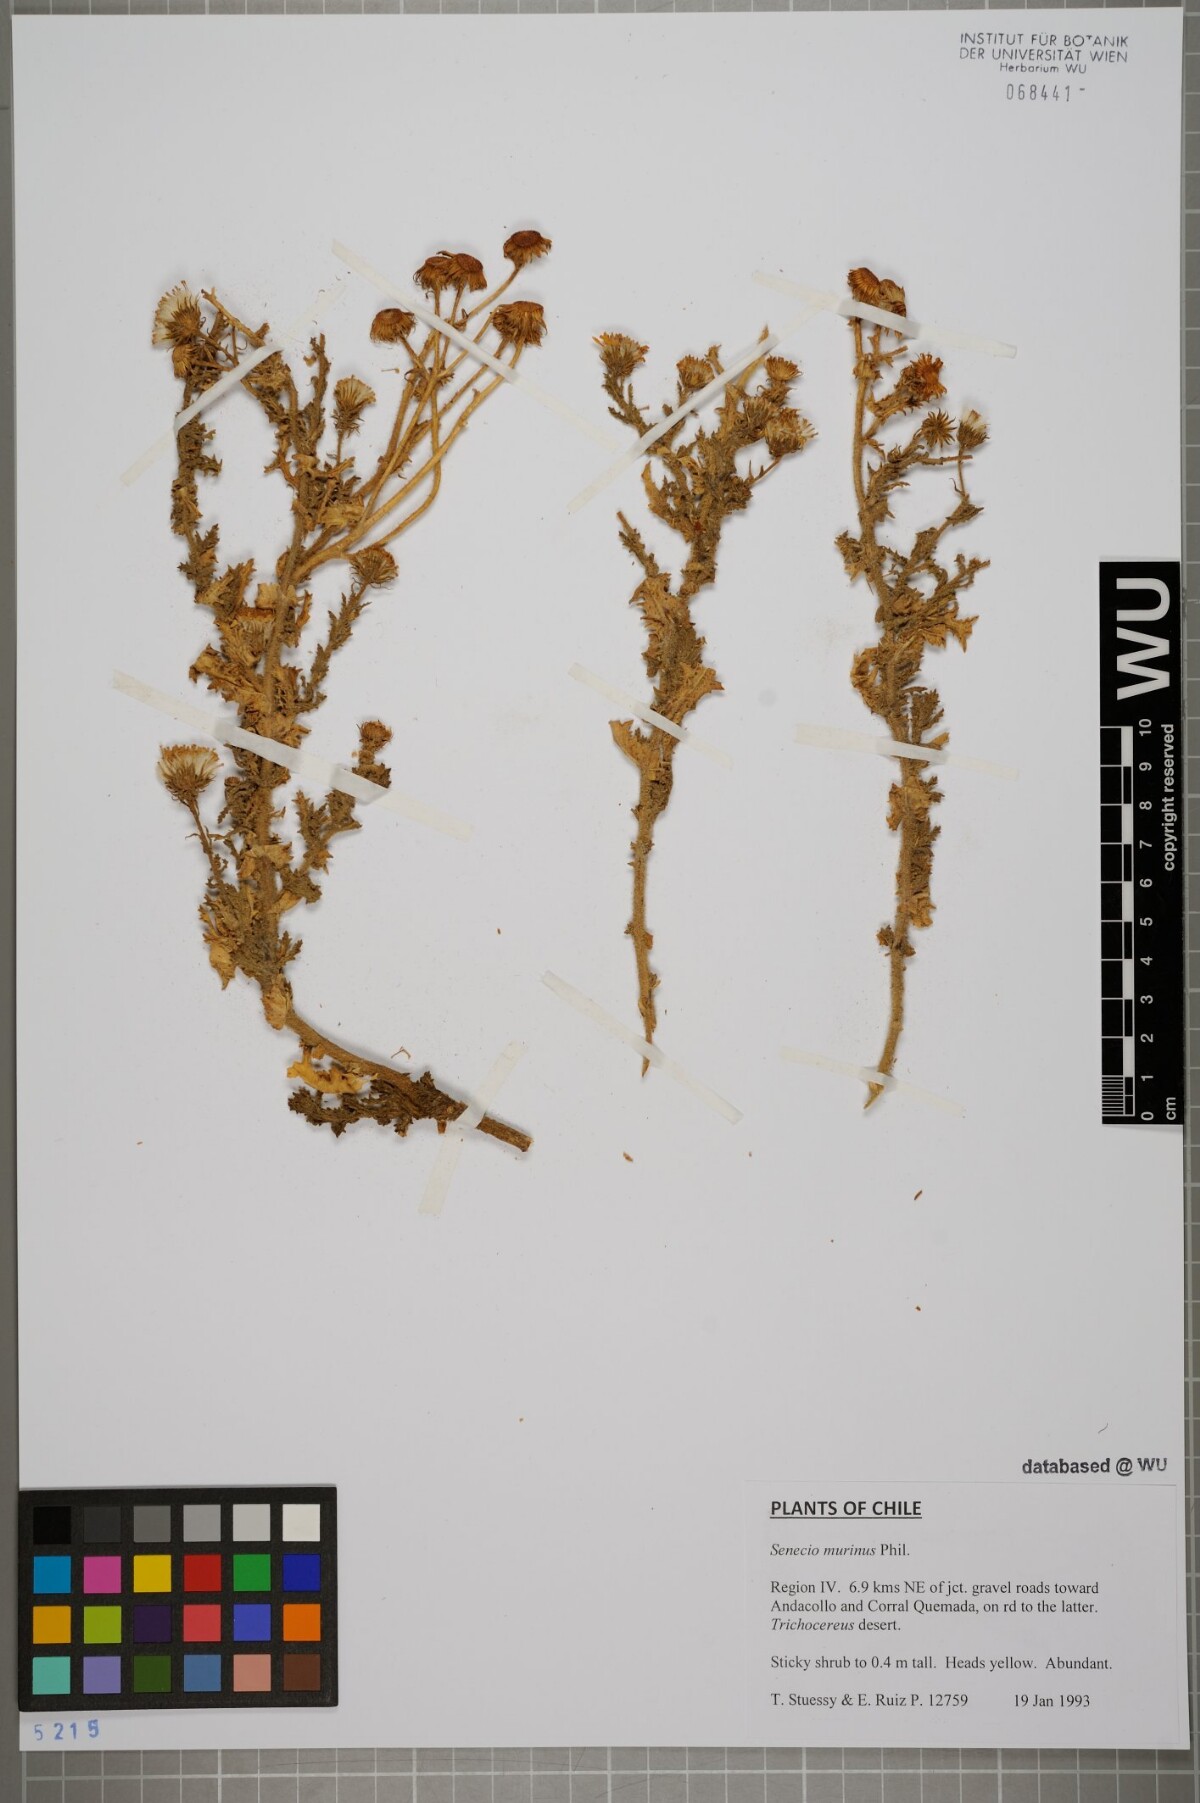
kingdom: Plantae
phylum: Tracheophyta
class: Magnoliopsida
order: Asterales
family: Asteraceae
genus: Senecio
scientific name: Senecio murinus
